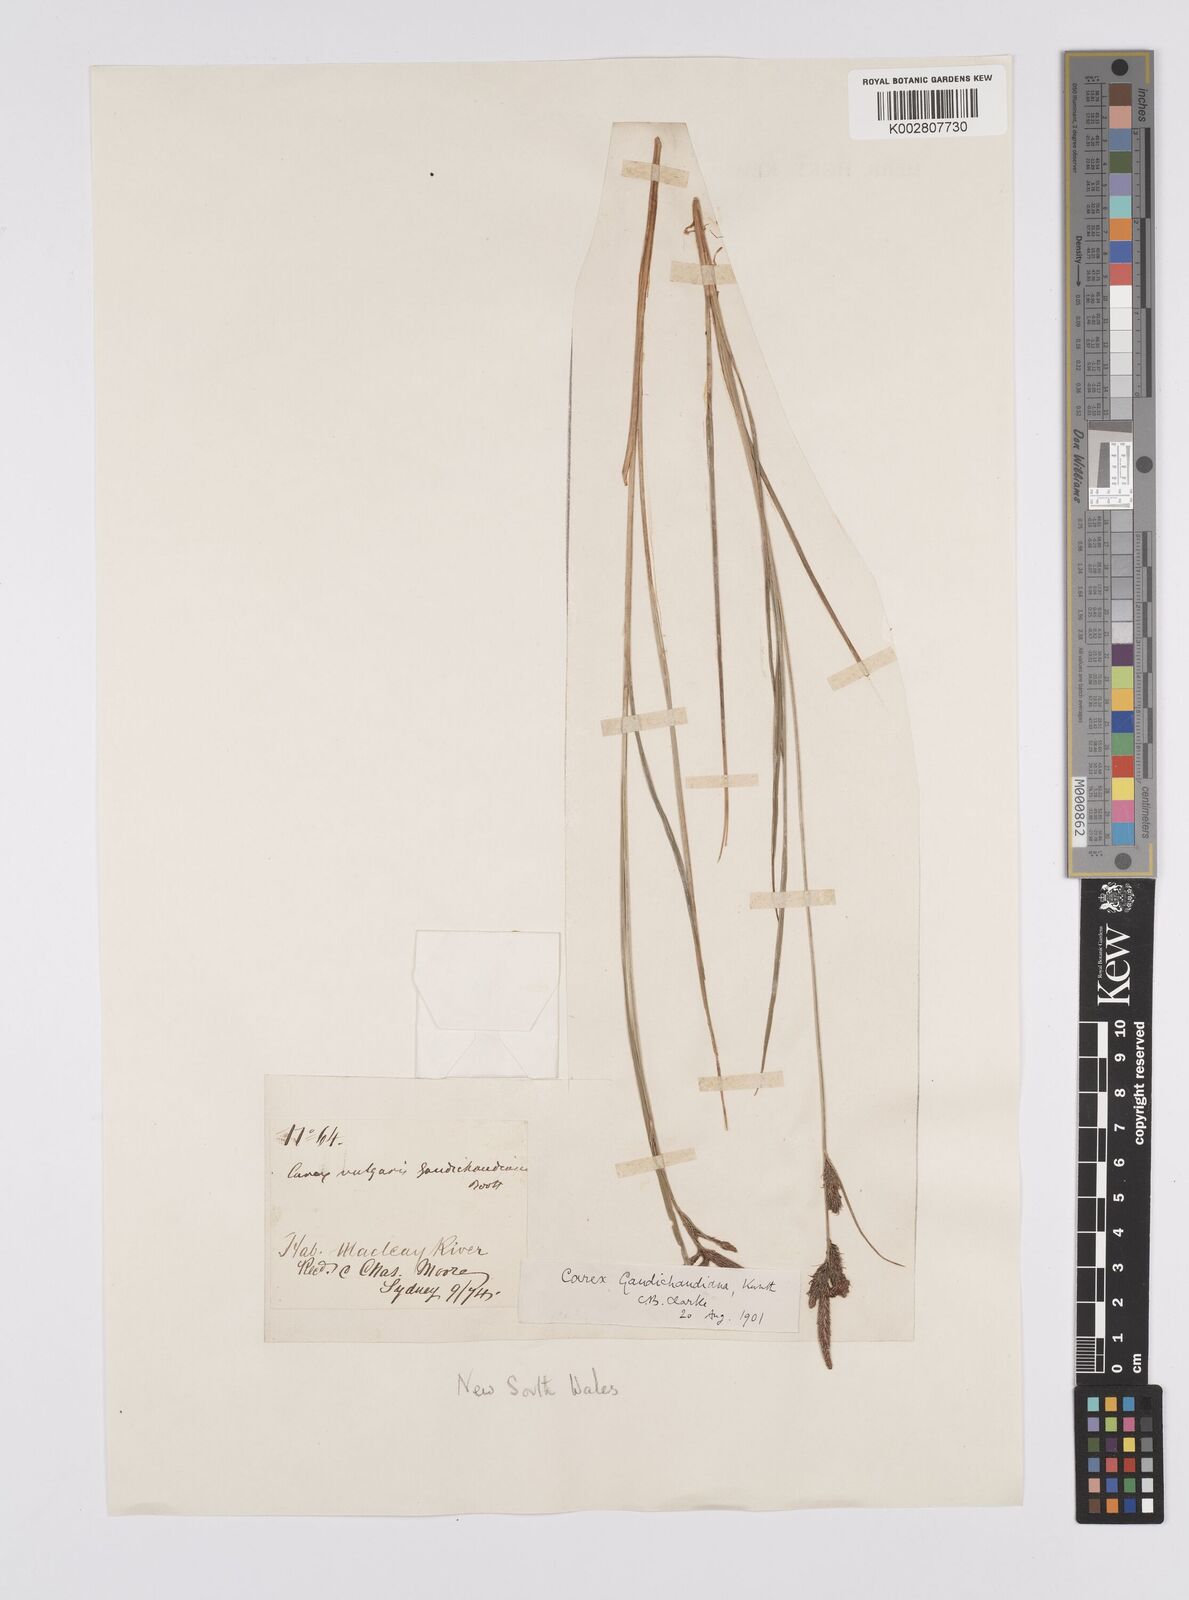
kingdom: Plantae
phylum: Tracheophyta
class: Liliopsida
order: Poales
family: Cyperaceae
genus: Carex
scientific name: Carex gaudichaudiana
